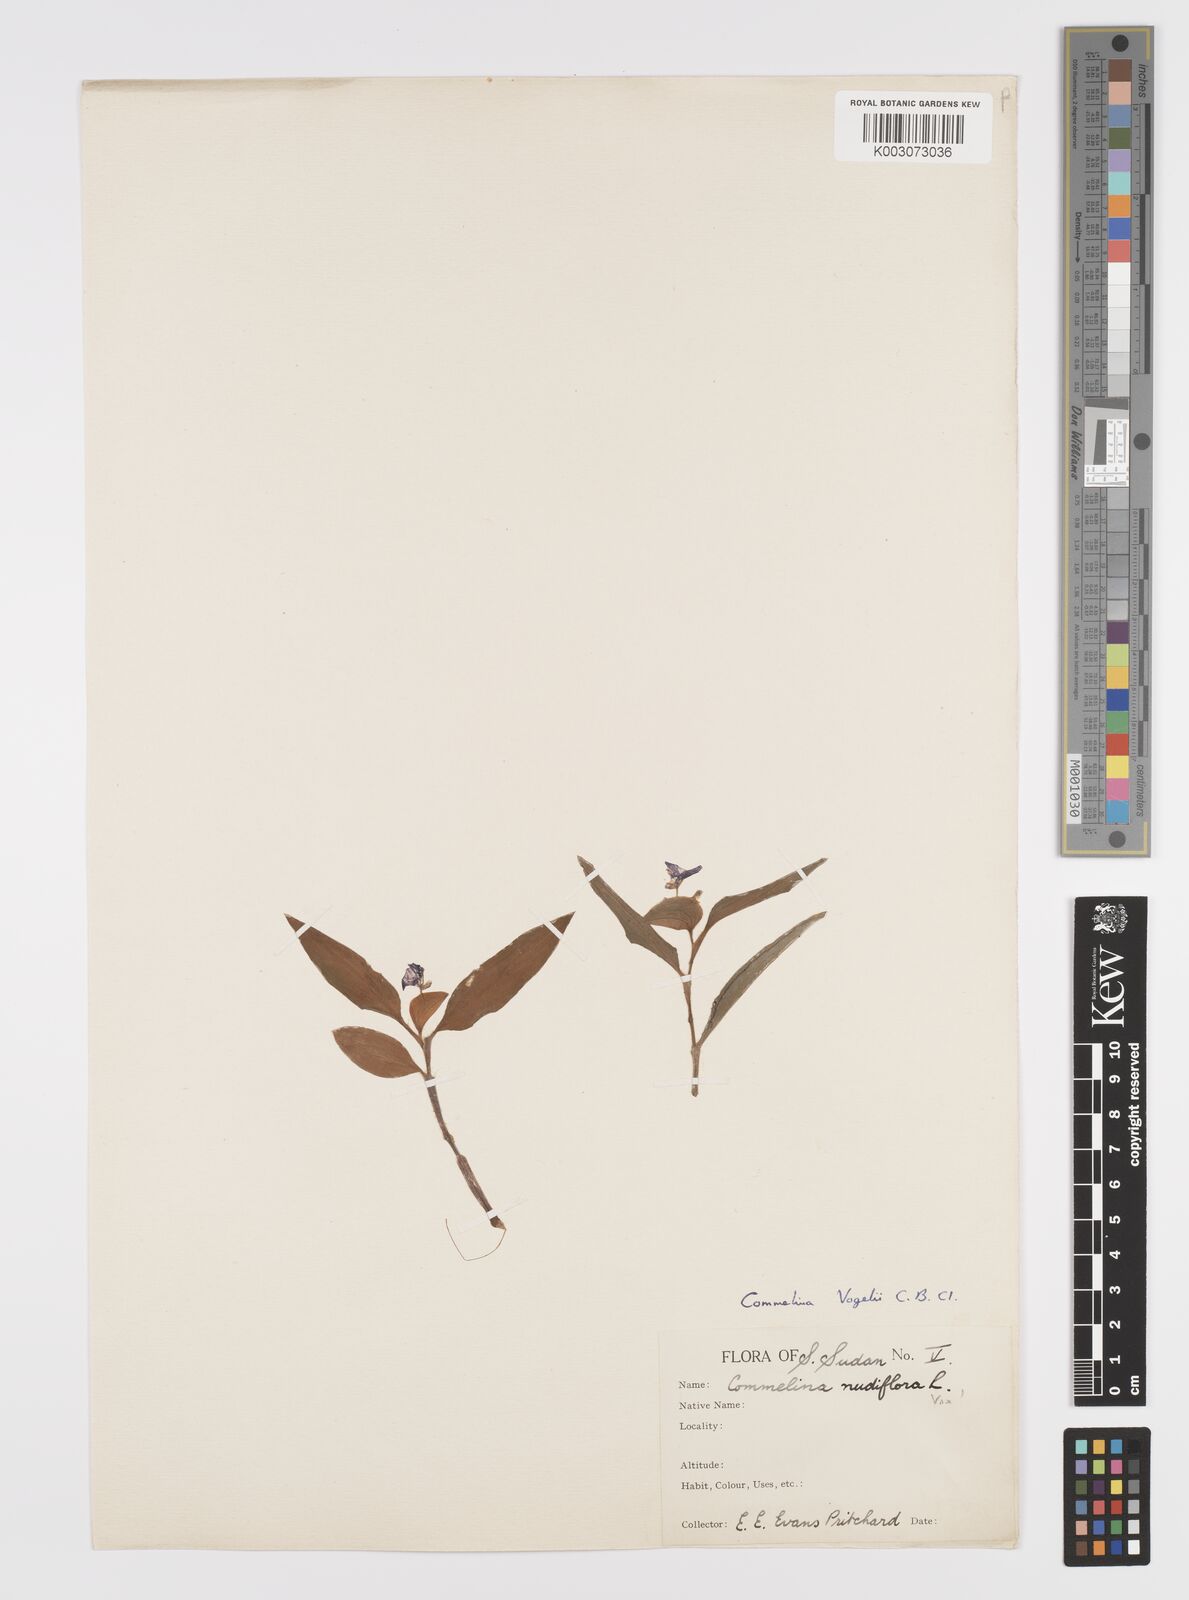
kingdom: Plantae
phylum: Tracheophyta
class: Liliopsida
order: Commelinales
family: Commelinaceae
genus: Commelina
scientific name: Commelina bracteosa
